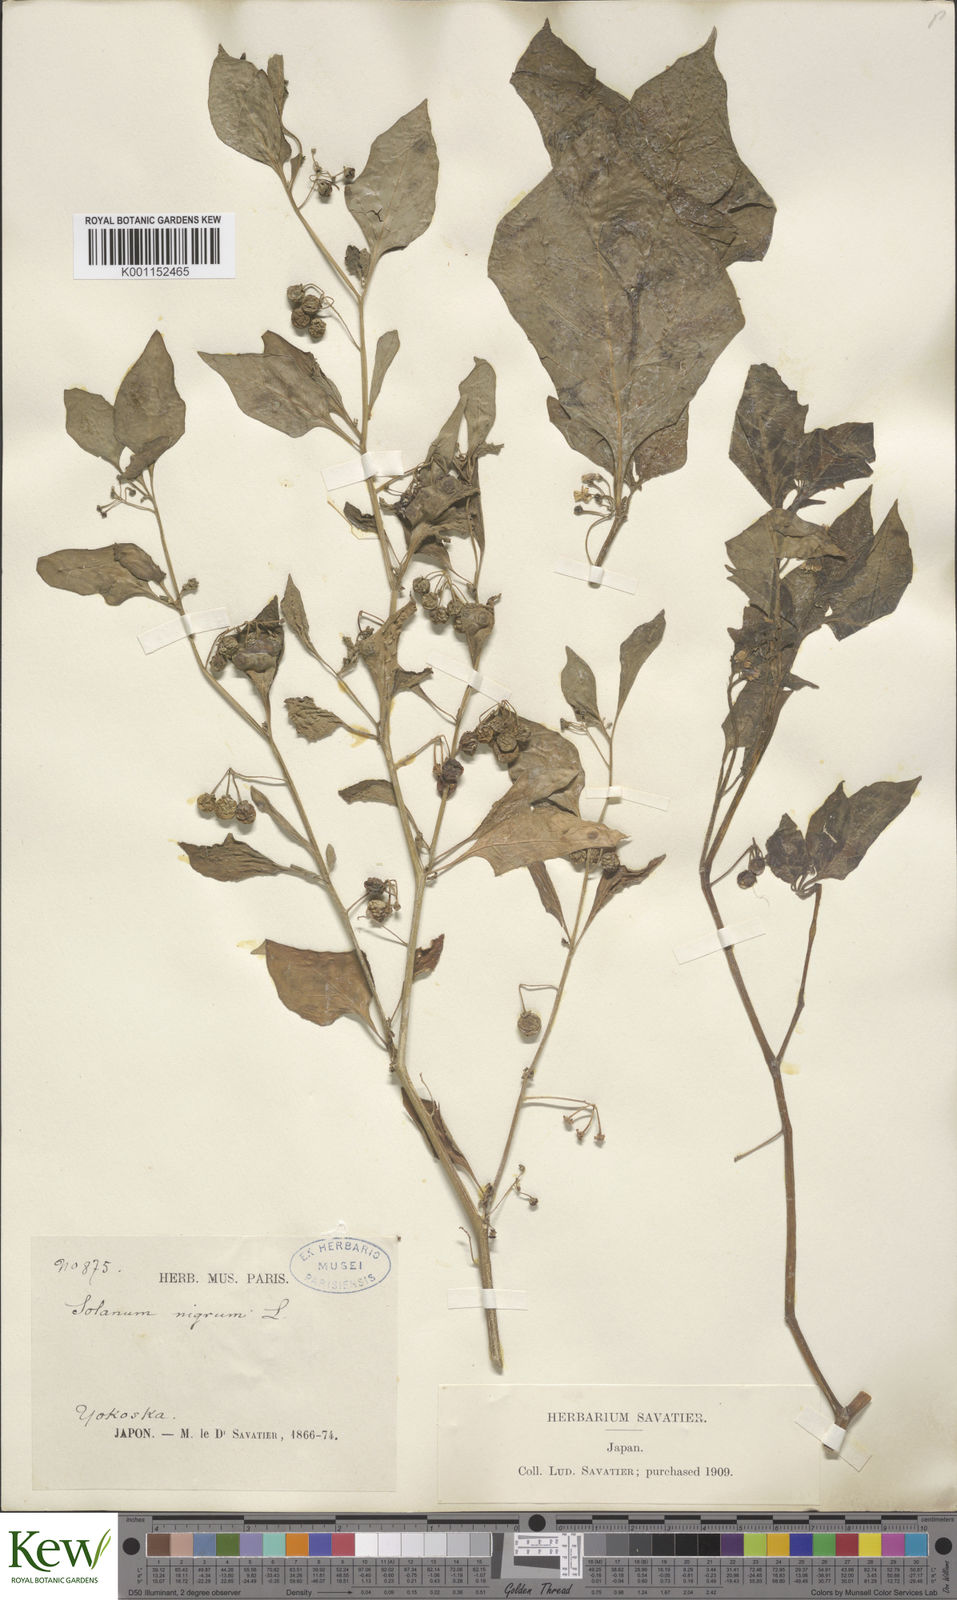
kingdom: Plantae
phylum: Tracheophyta
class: Magnoliopsida
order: Solanales
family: Solanaceae
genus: Solanum
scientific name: Solanum
